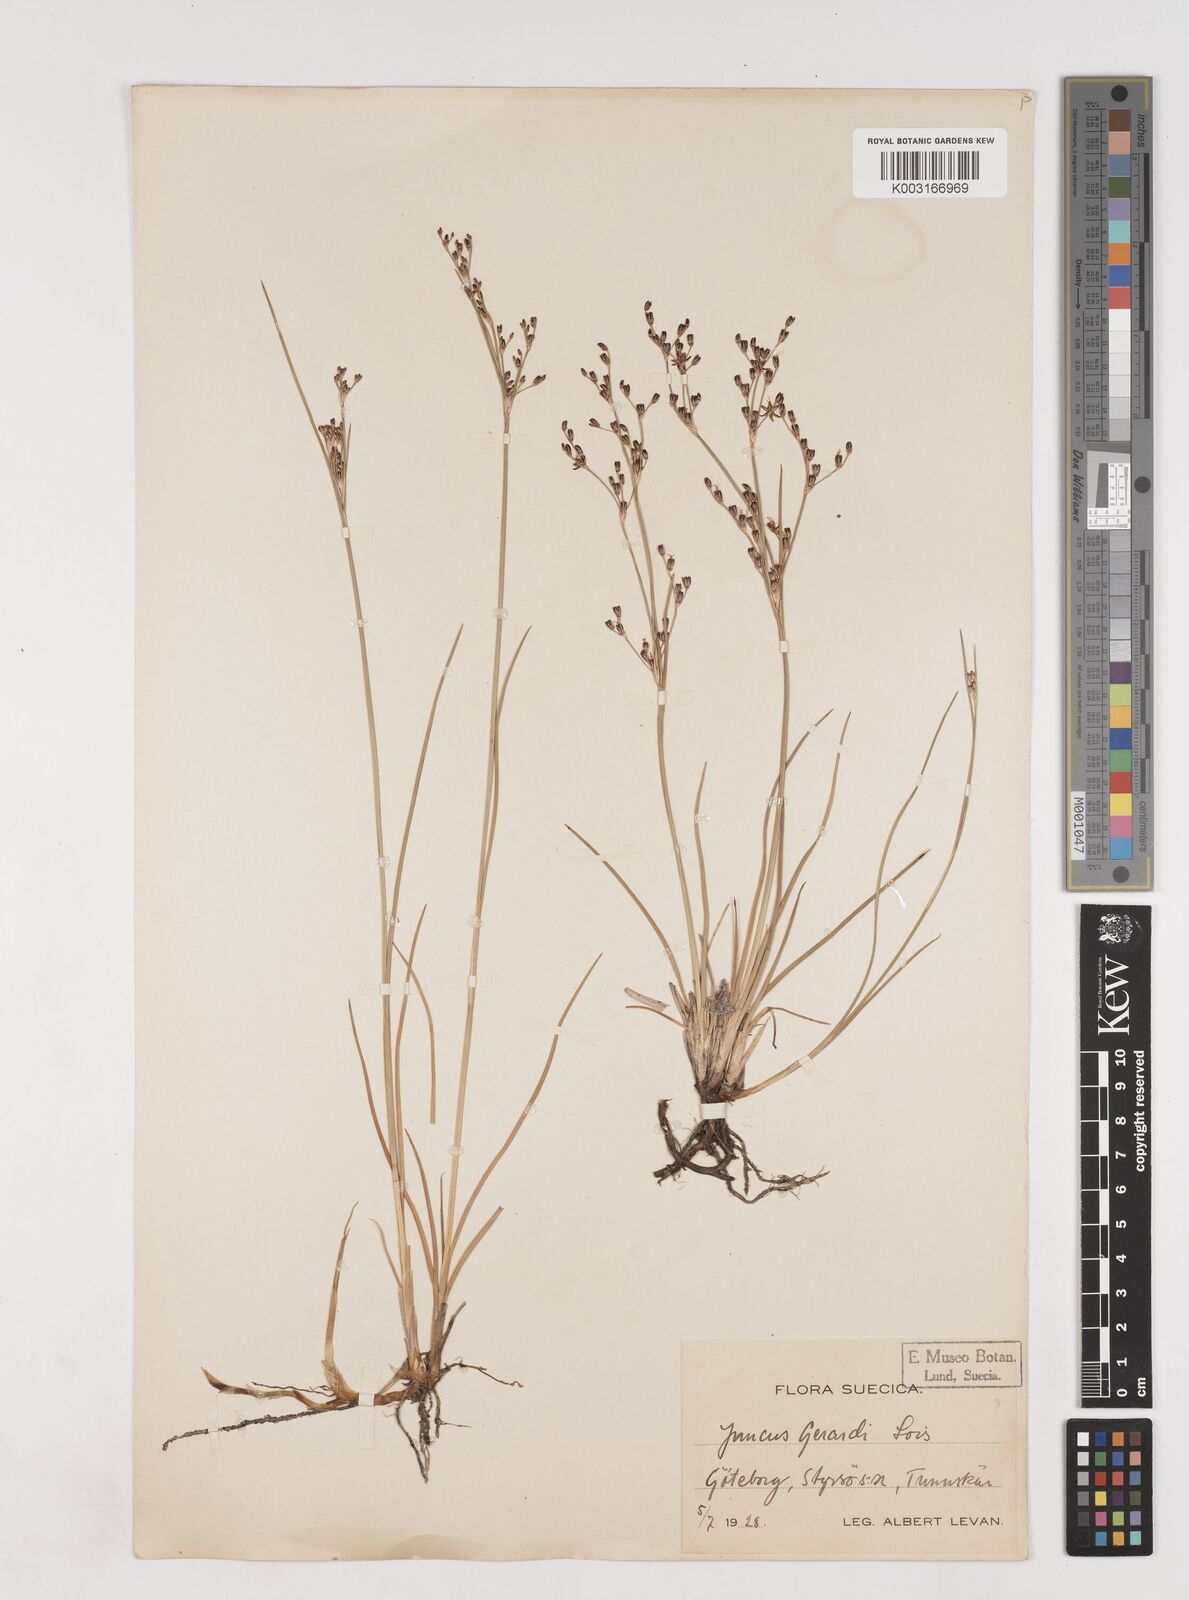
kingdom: Plantae
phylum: Tracheophyta
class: Liliopsida
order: Poales
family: Juncaceae
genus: Juncus
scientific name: Juncus gerardi
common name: Saltmarsh rush
